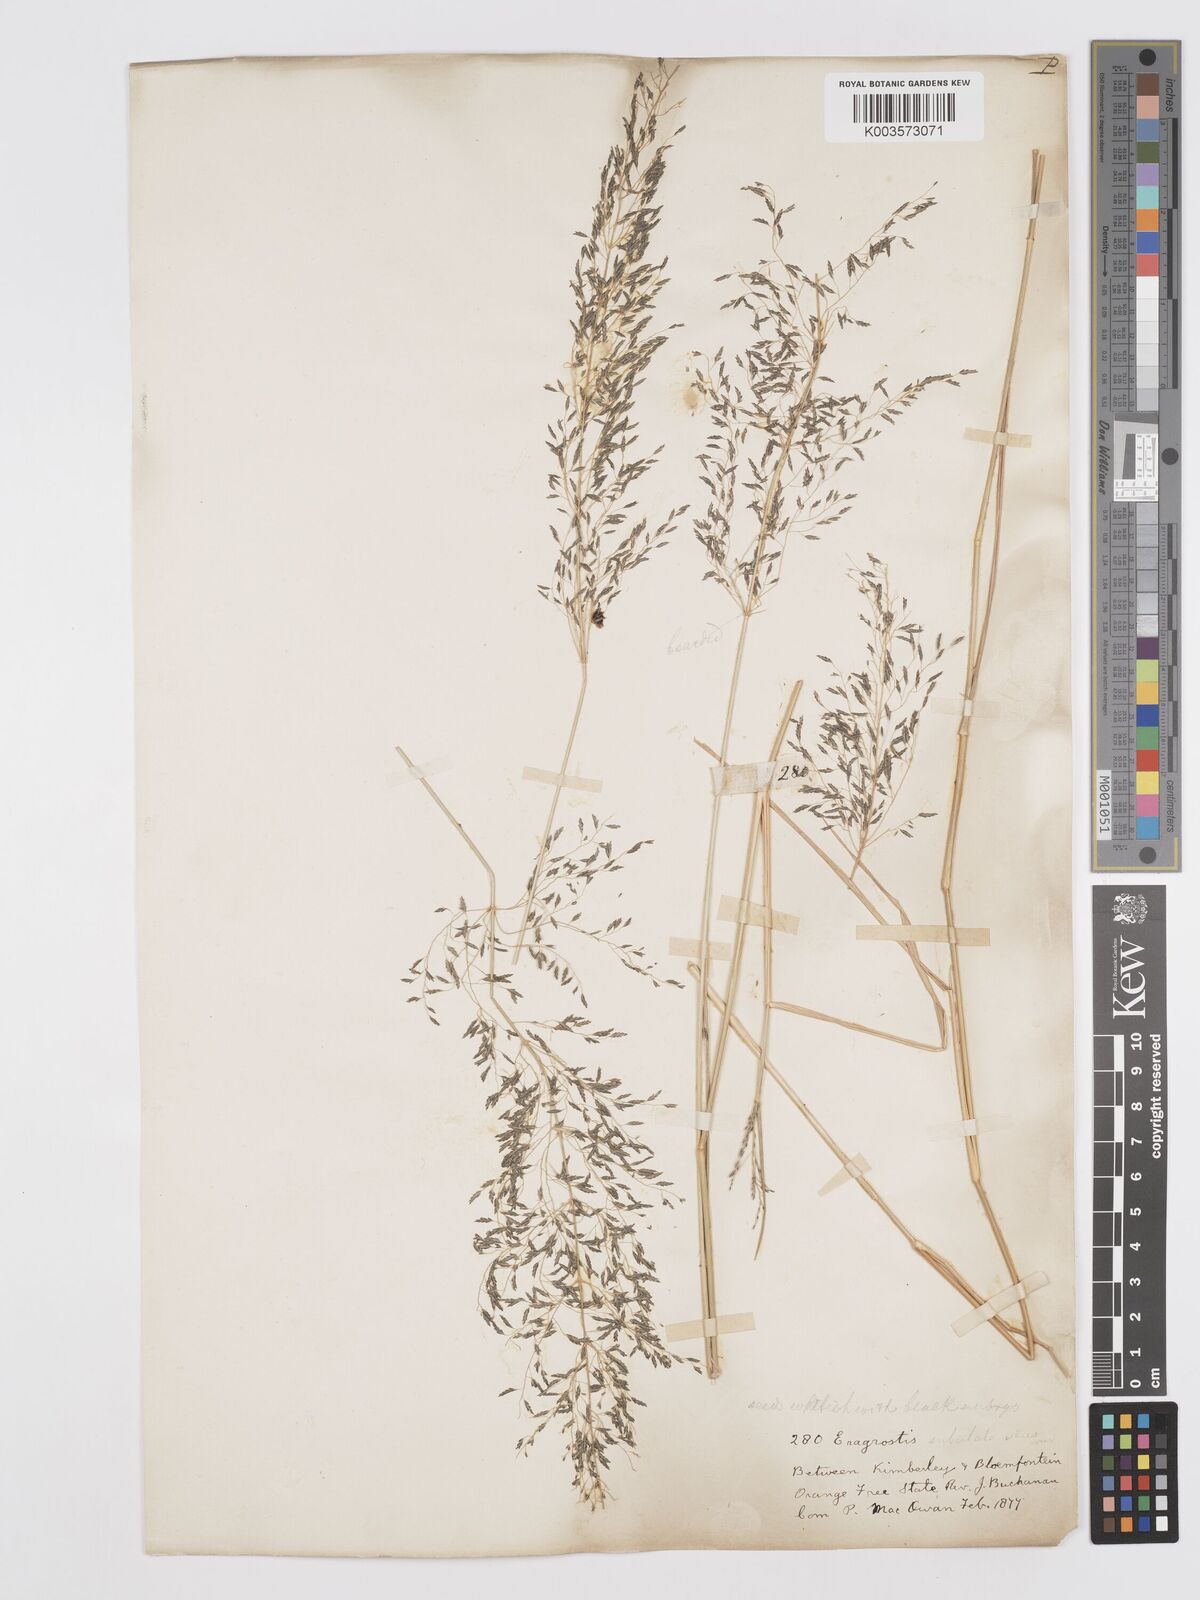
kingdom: Plantae
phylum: Tracheophyta
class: Liliopsida
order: Poales
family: Poaceae
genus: Eragrostis
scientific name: Eragrostis curvula
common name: African love-grass
